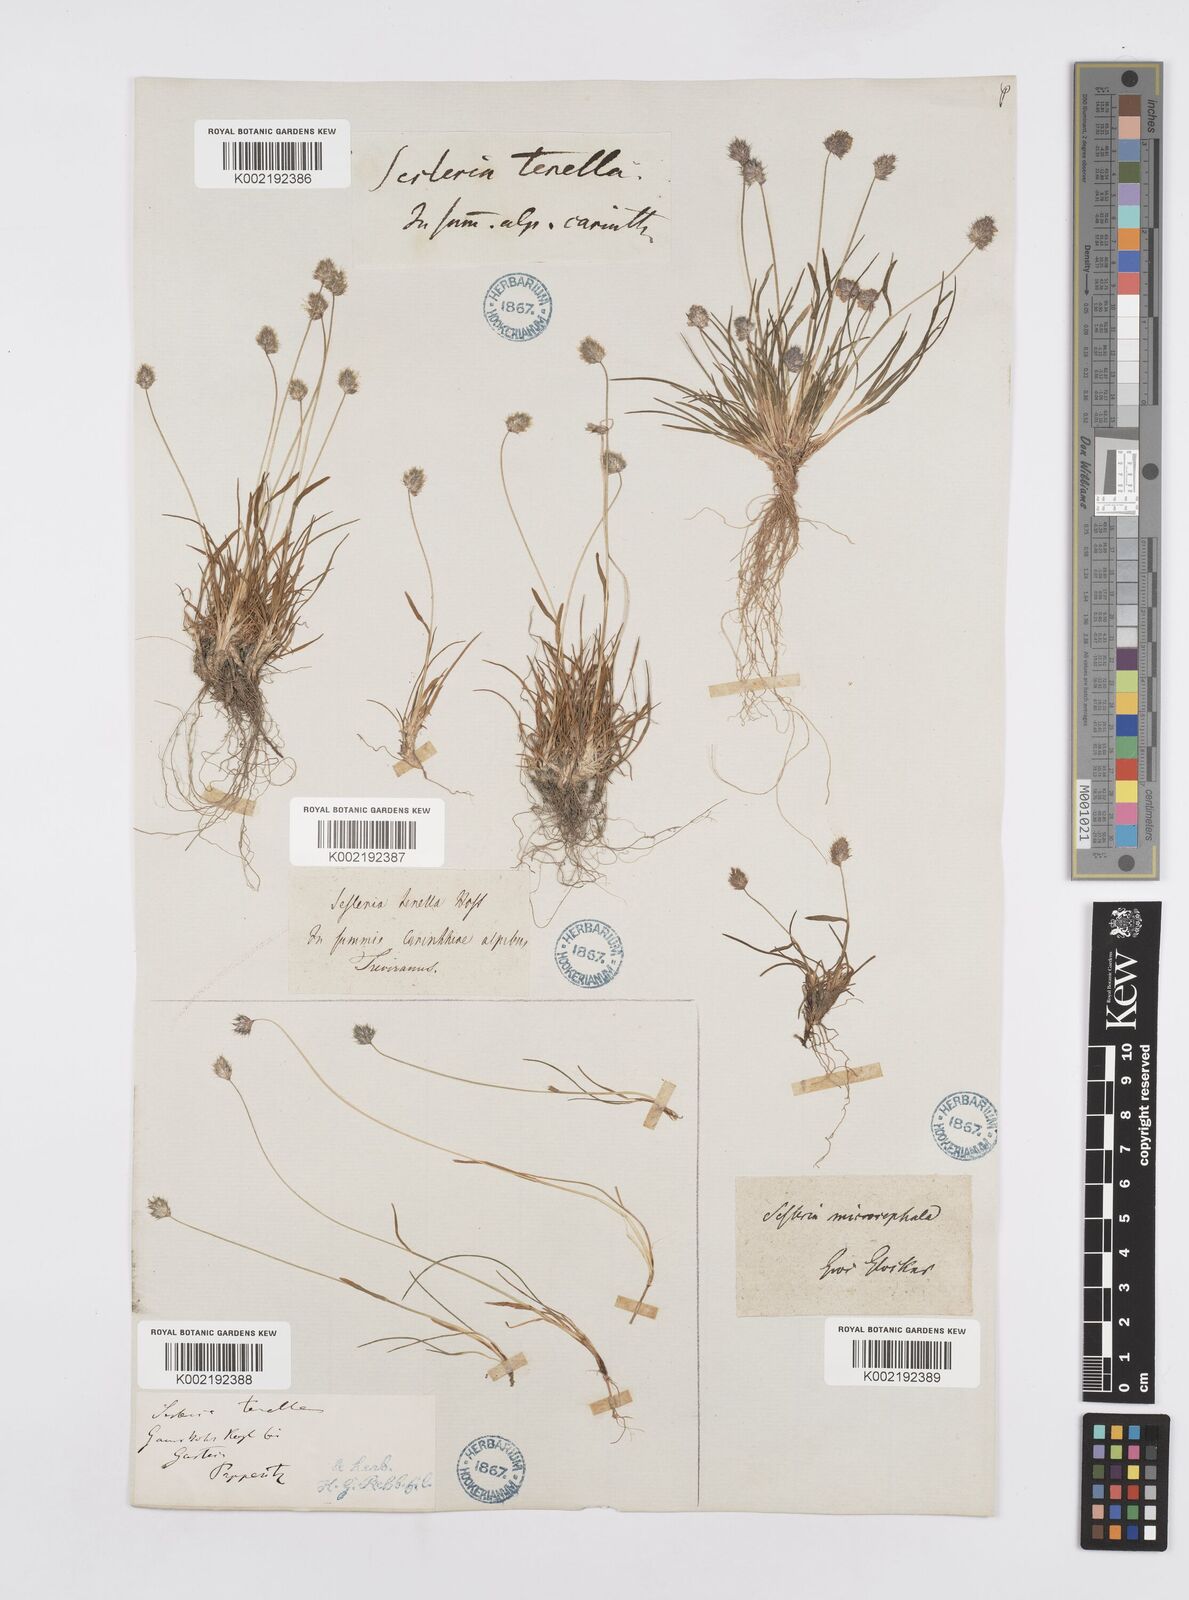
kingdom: Plantae
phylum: Tracheophyta
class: Liliopsida
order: Poales
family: Poaceae
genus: Psilathera
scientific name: Psilathera ovata
